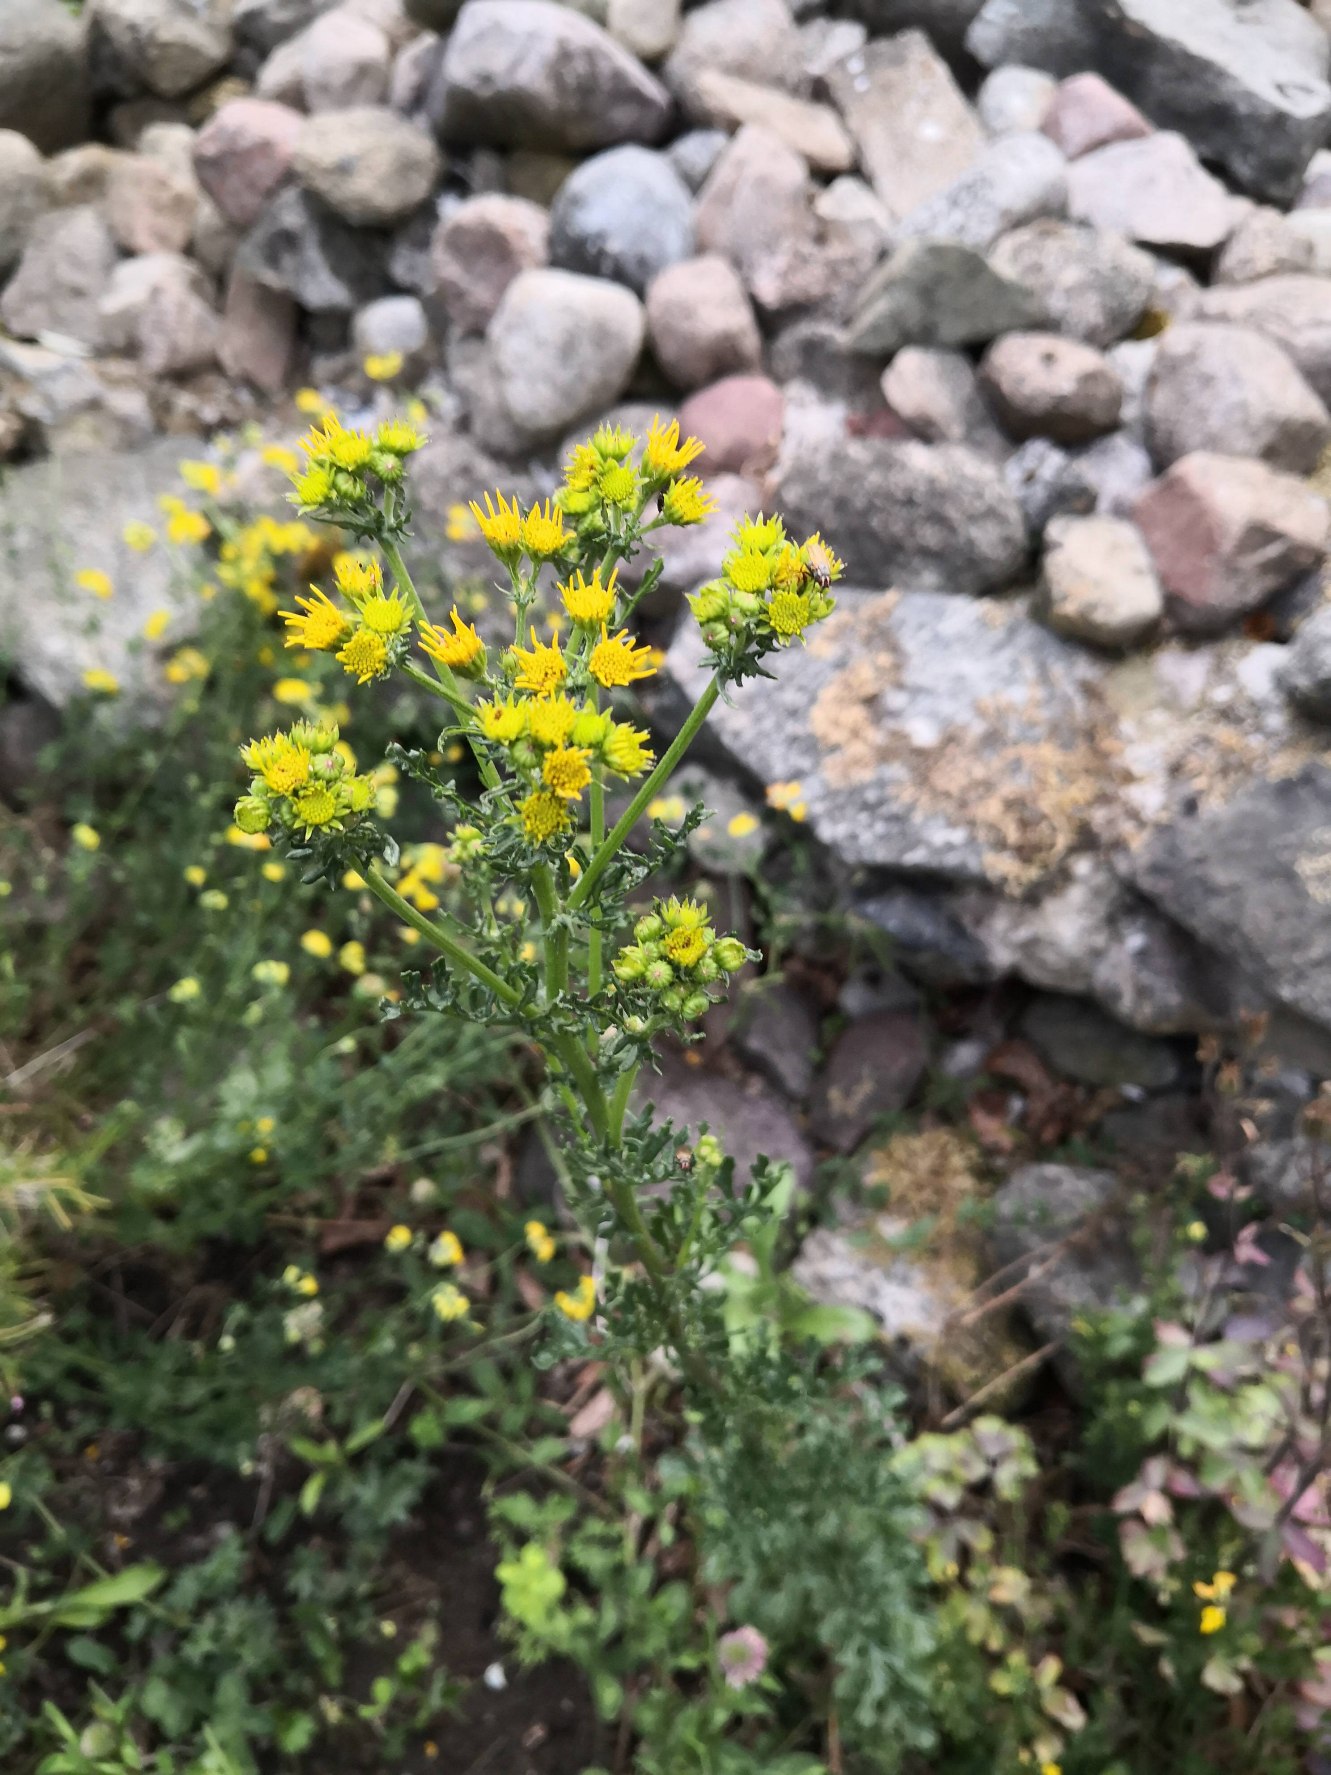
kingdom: Plantae
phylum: Tracheophyta
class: Magnoliopsida
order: Asterales
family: Asteraceae
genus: Jacobaea
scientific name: Jacobaea vulgaris
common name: Eng-brandbæger
